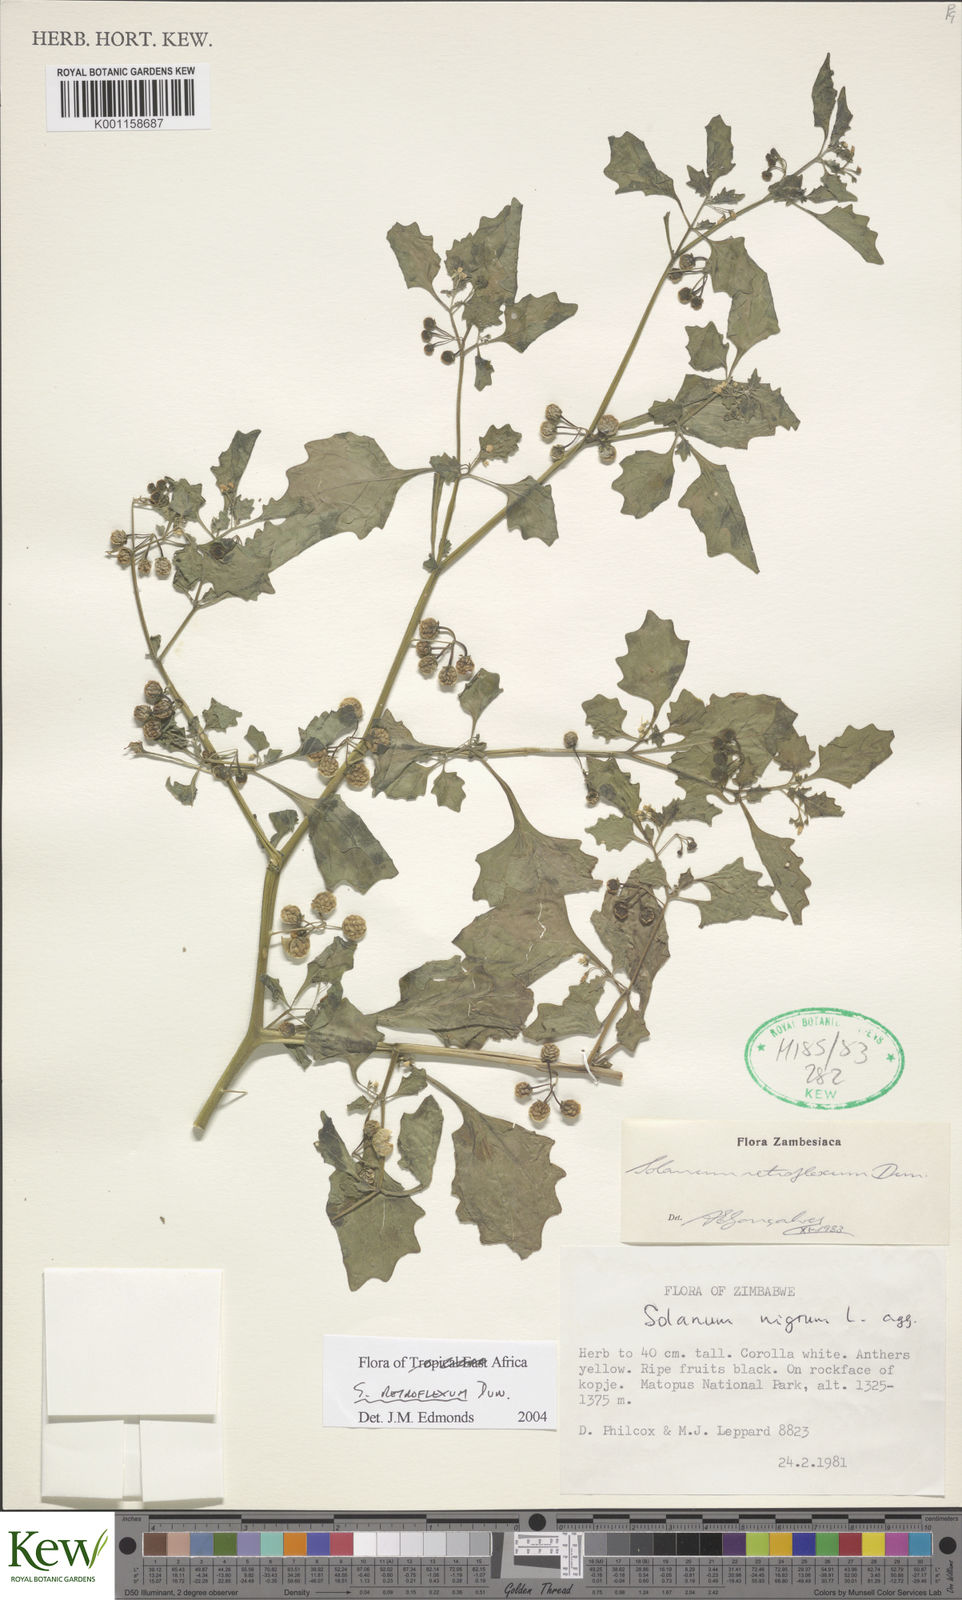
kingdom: Plantae
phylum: Tracheophyta
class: Magnoliopsida
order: Solanales
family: Solanaceae
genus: Solanum
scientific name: Solanum retroflexum
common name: Wonderberry
